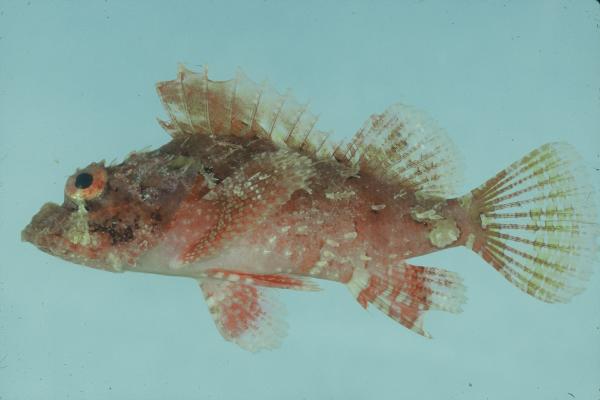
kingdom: Animalia
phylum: Chordata
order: Scorpaeniformes
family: Scorpaenidae
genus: Scorpaenopsis
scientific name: Scorpaenopsis
